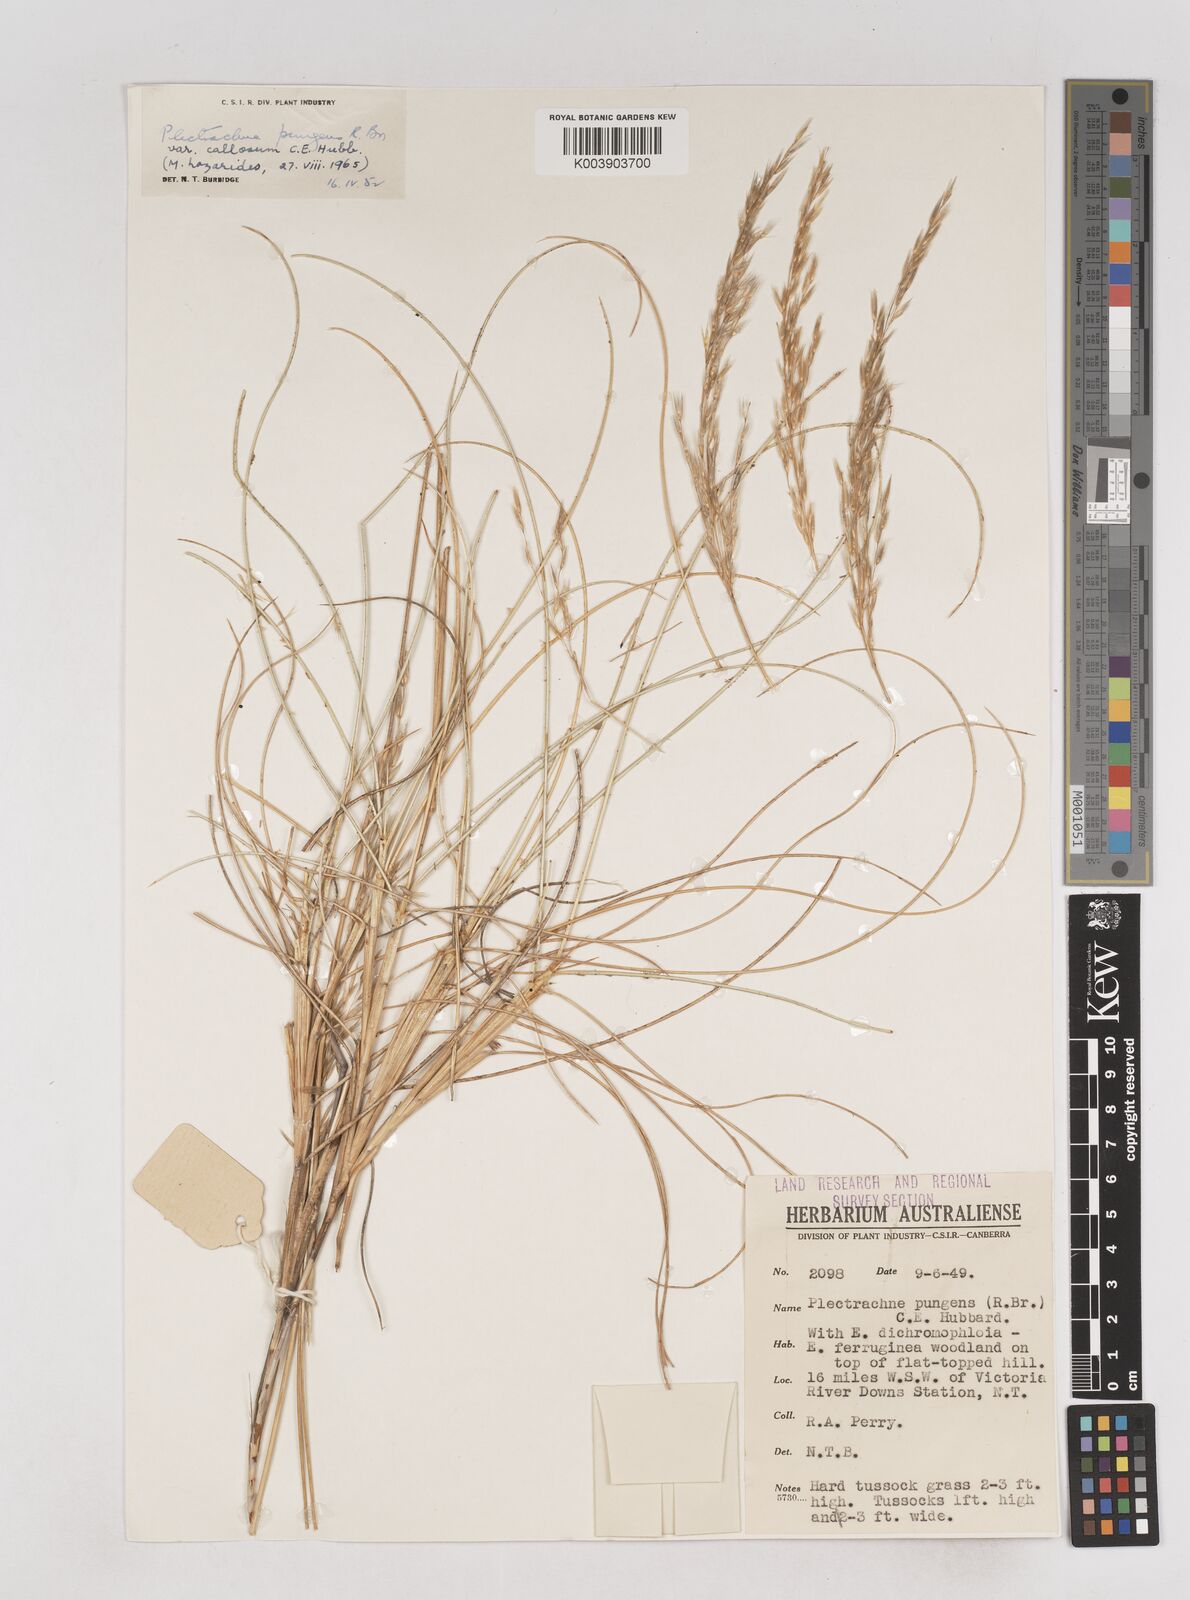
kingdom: Plantae
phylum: Tracheophyta
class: Liliopsida
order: Poales
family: Poaceae
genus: Triodia
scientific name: Triodia bitextura
